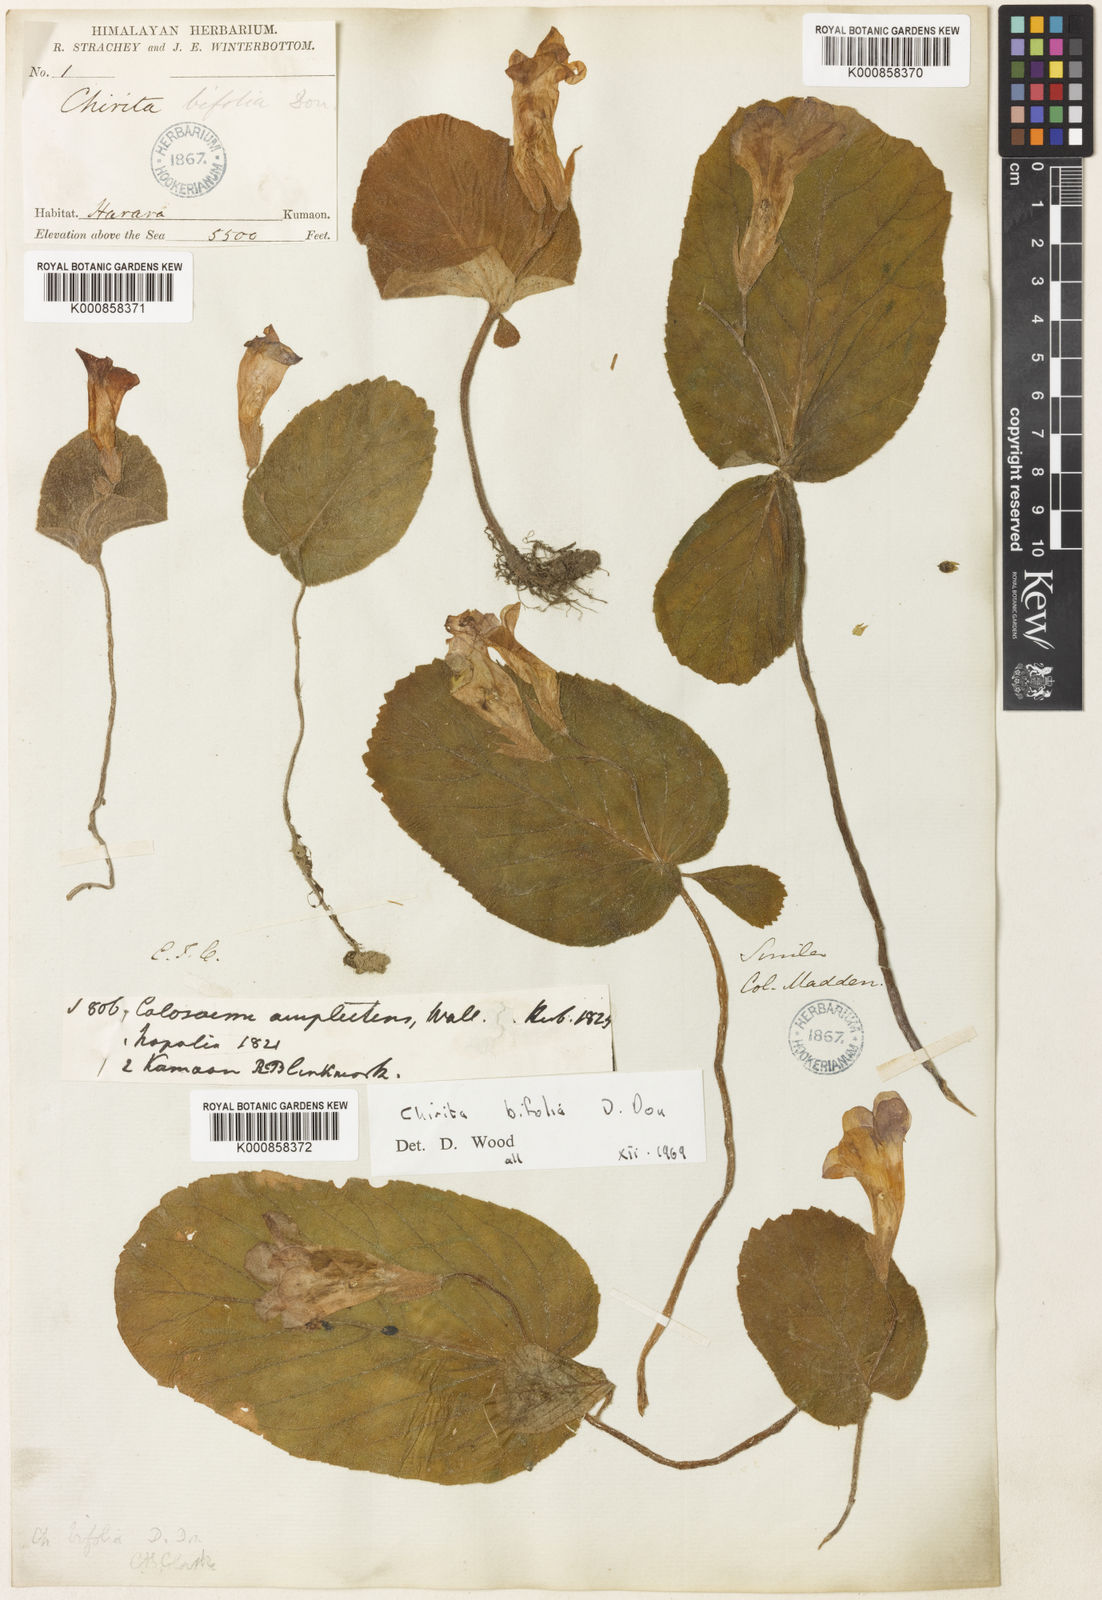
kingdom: Plantae
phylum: Tracheophyta
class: Magnoliopsida
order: Lamiales
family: Gesneriaceae
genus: Henckelia
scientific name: Henckelia bifolia
